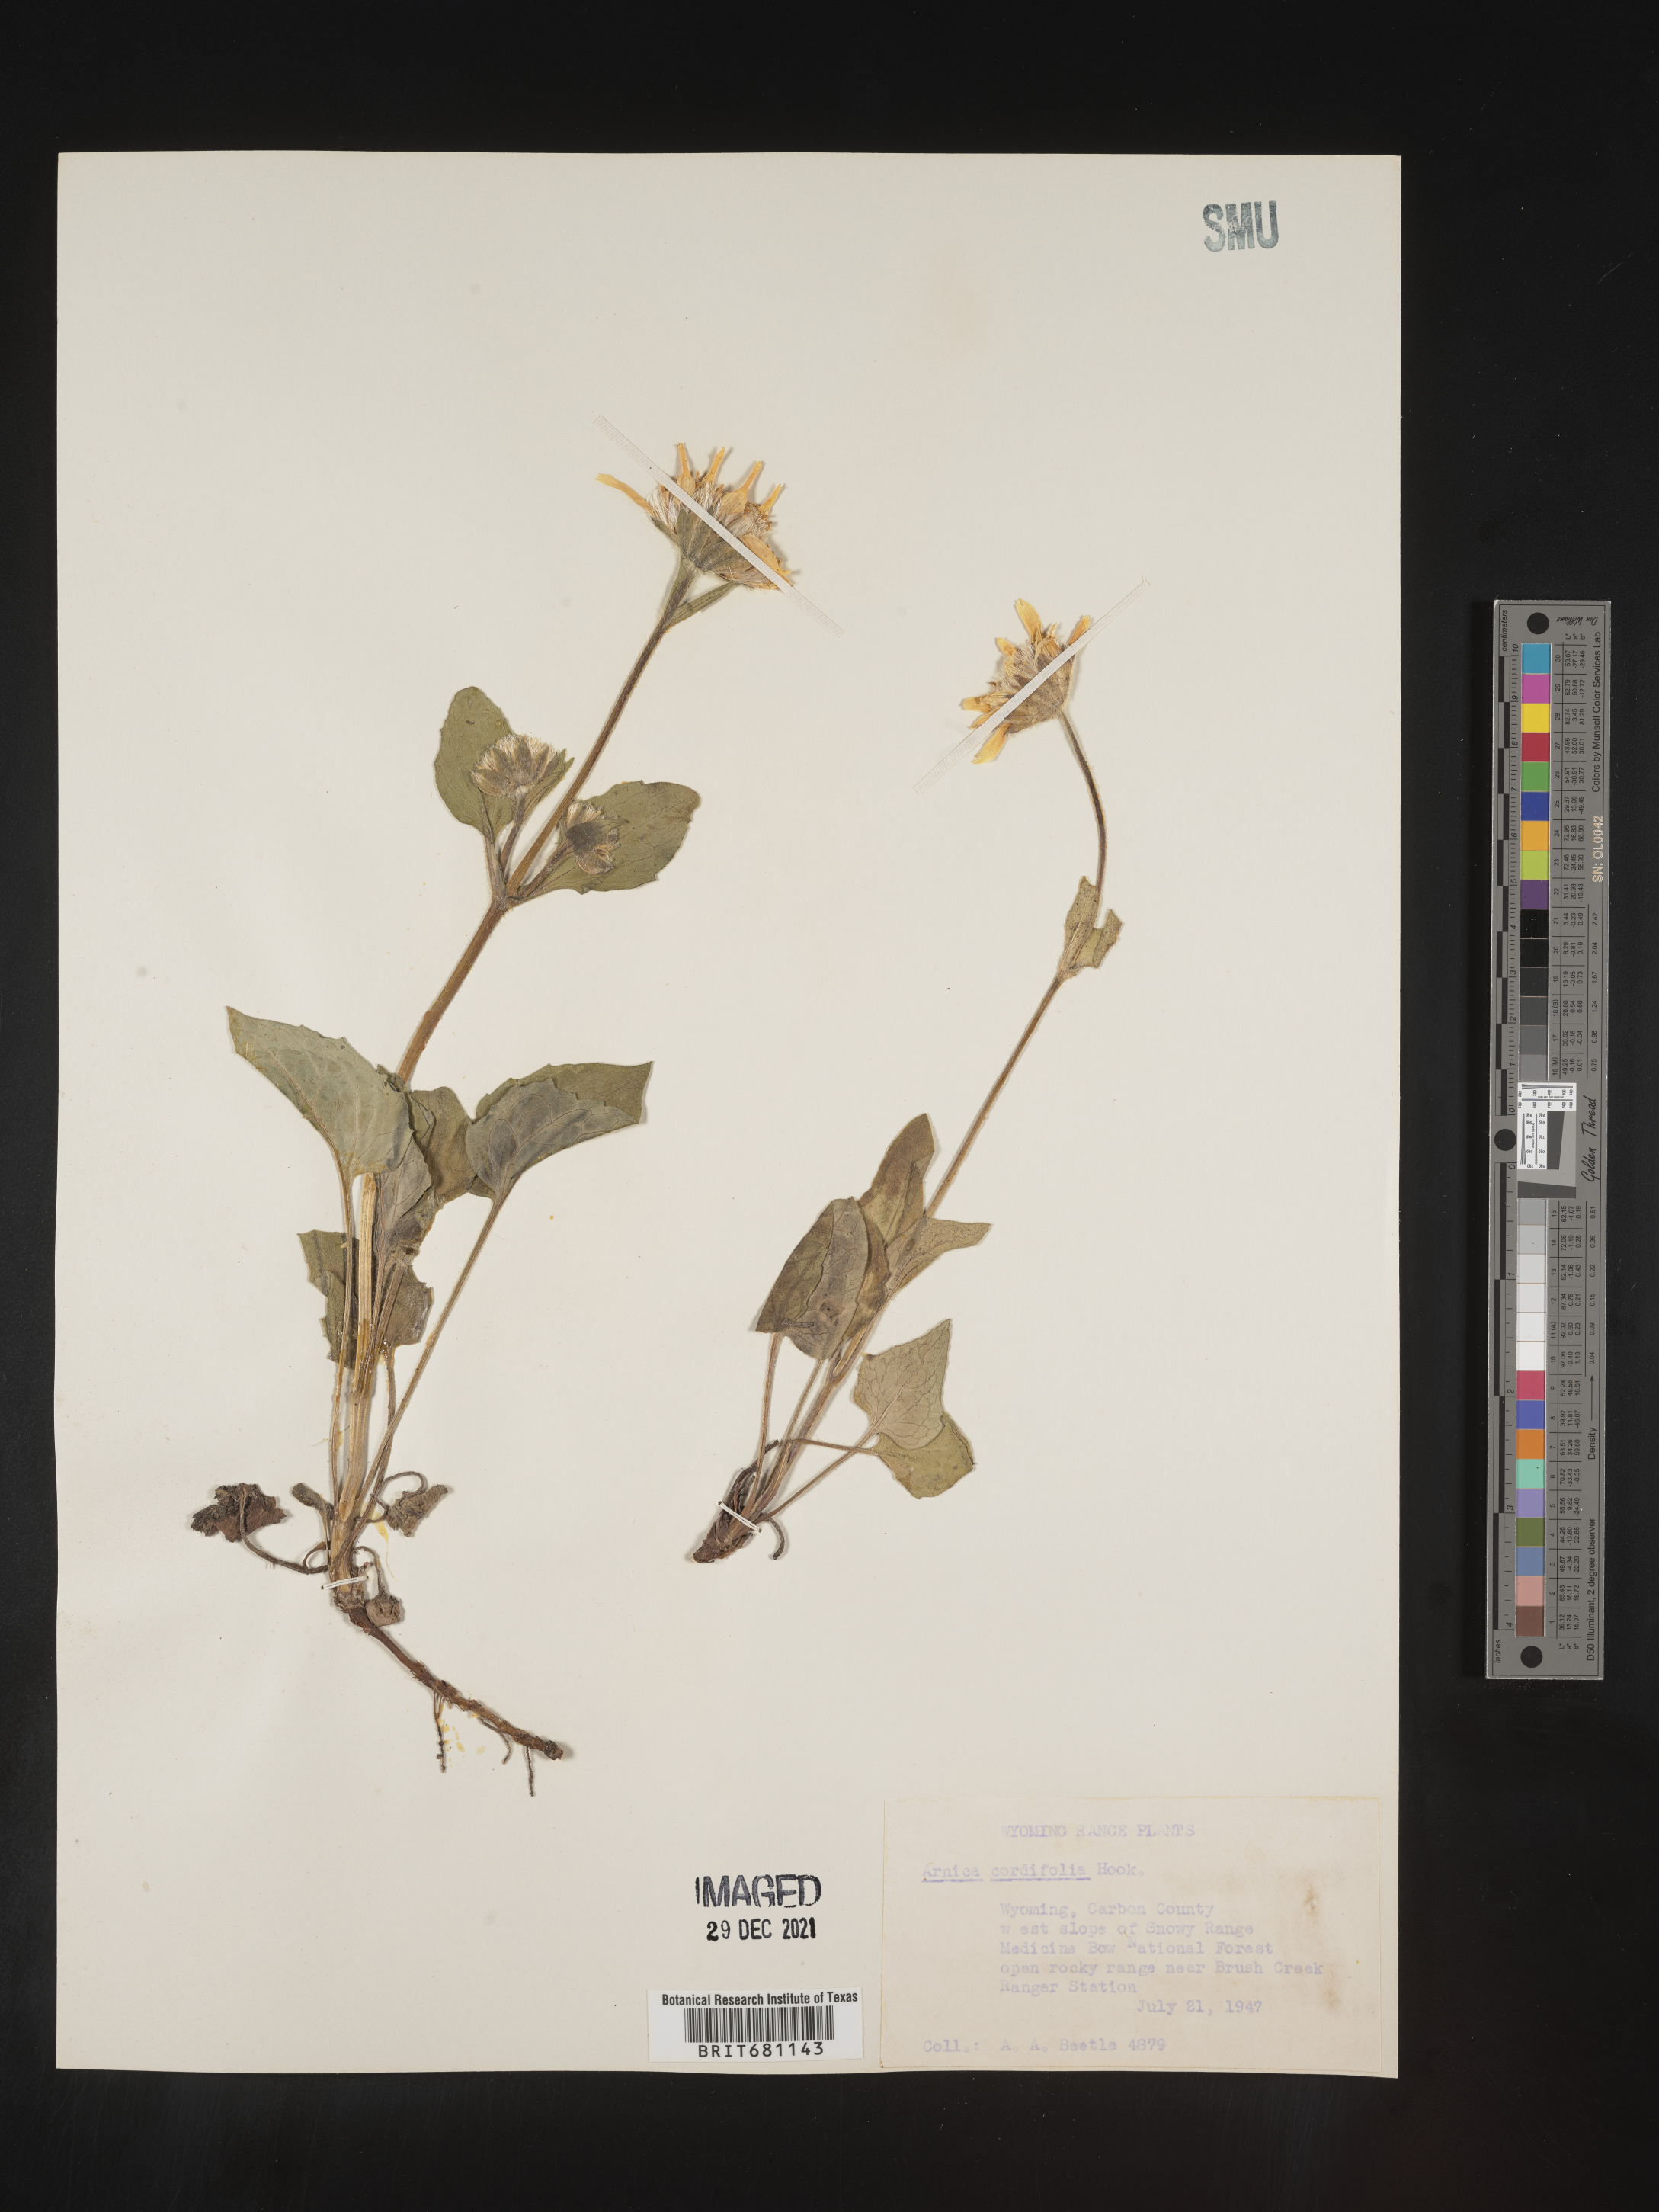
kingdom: Plantae
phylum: Tracheophyta
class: Magnoliopsida
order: Asterales
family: Asteraceae
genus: Arnica
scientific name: Arnica cordifolia
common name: Heart-leaf arnica
